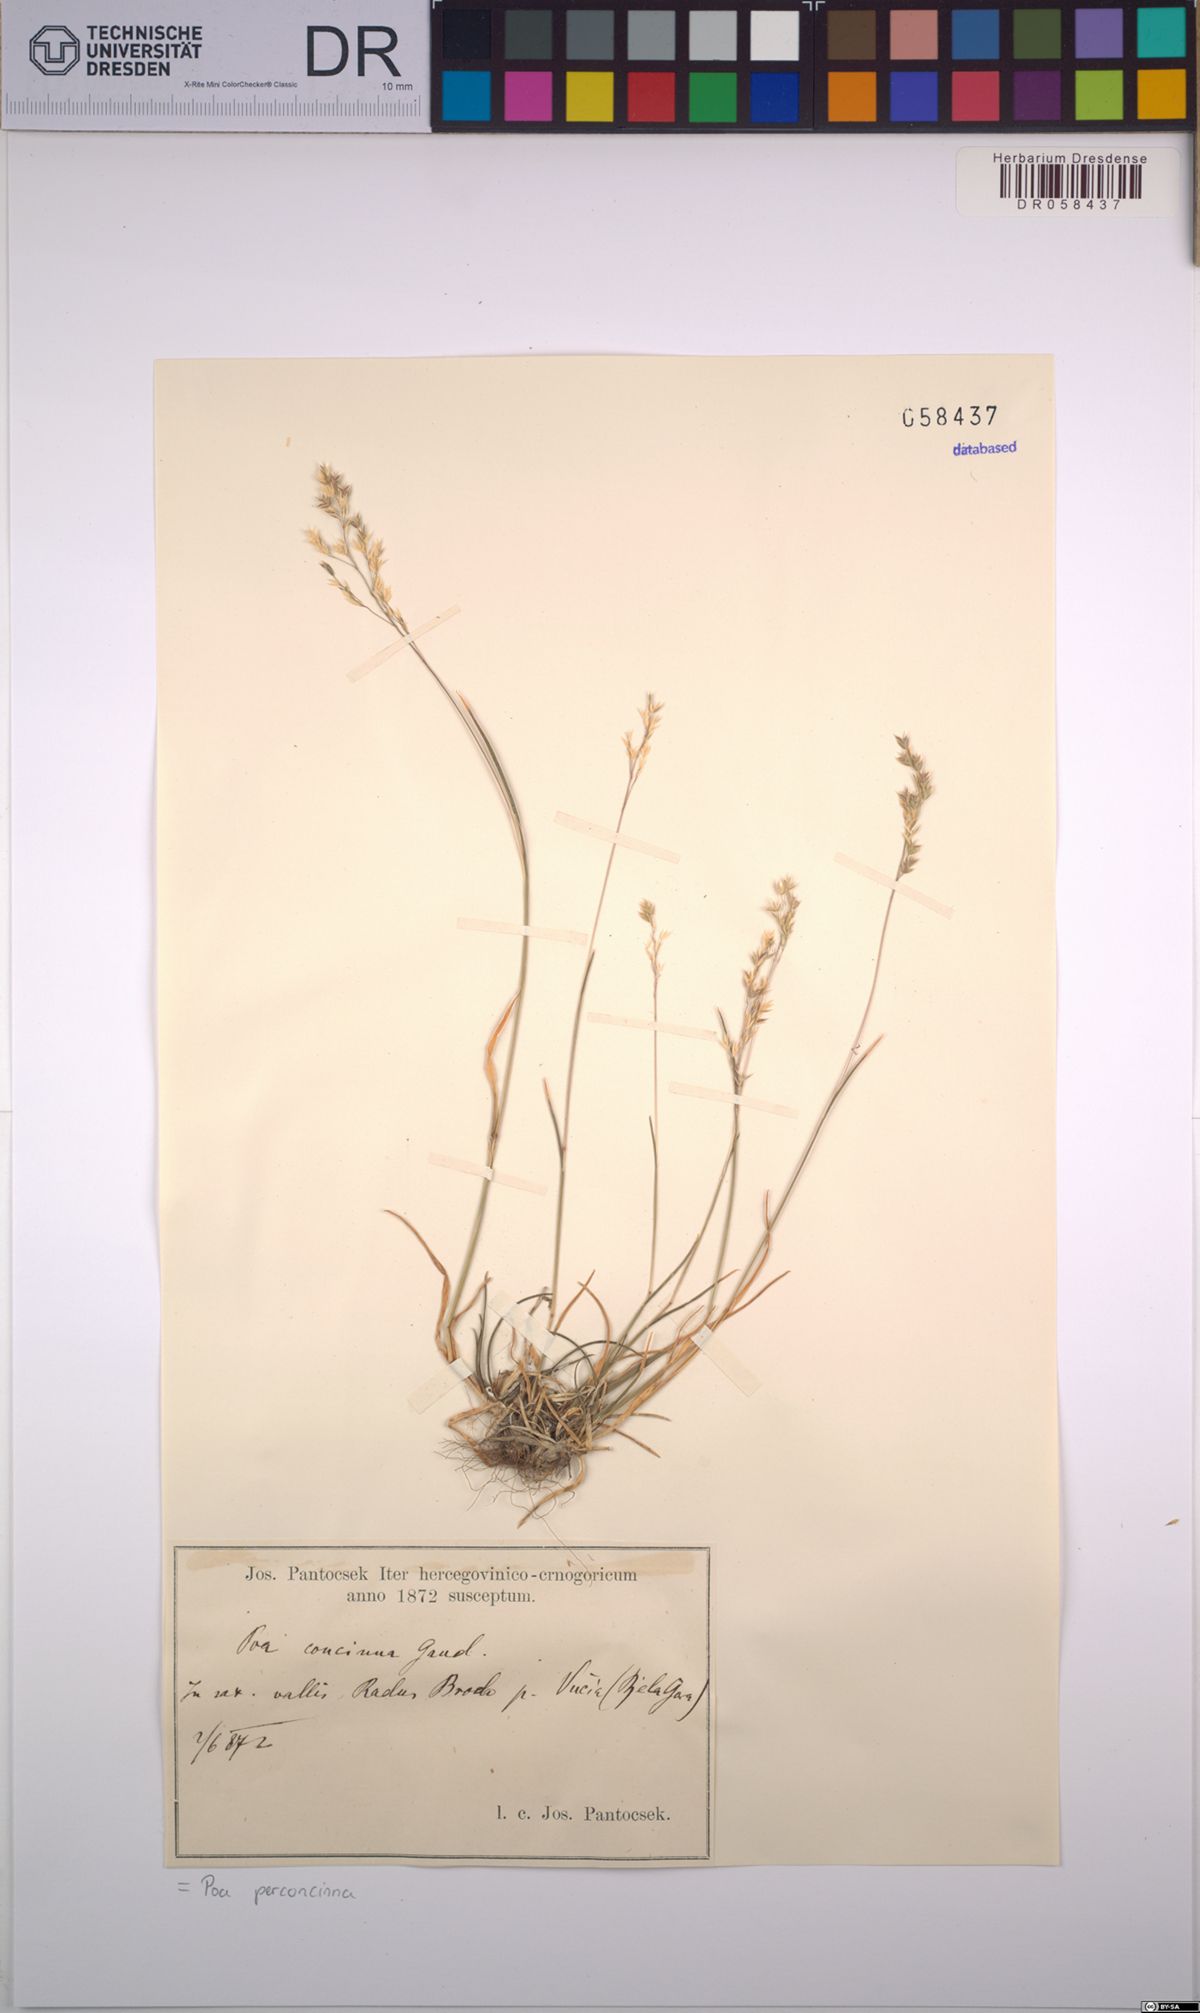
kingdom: Plantae
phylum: Tracheophyta
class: Liliopsida
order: Poales
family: Poaceae
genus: Poa
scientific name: Poa perconcinna
